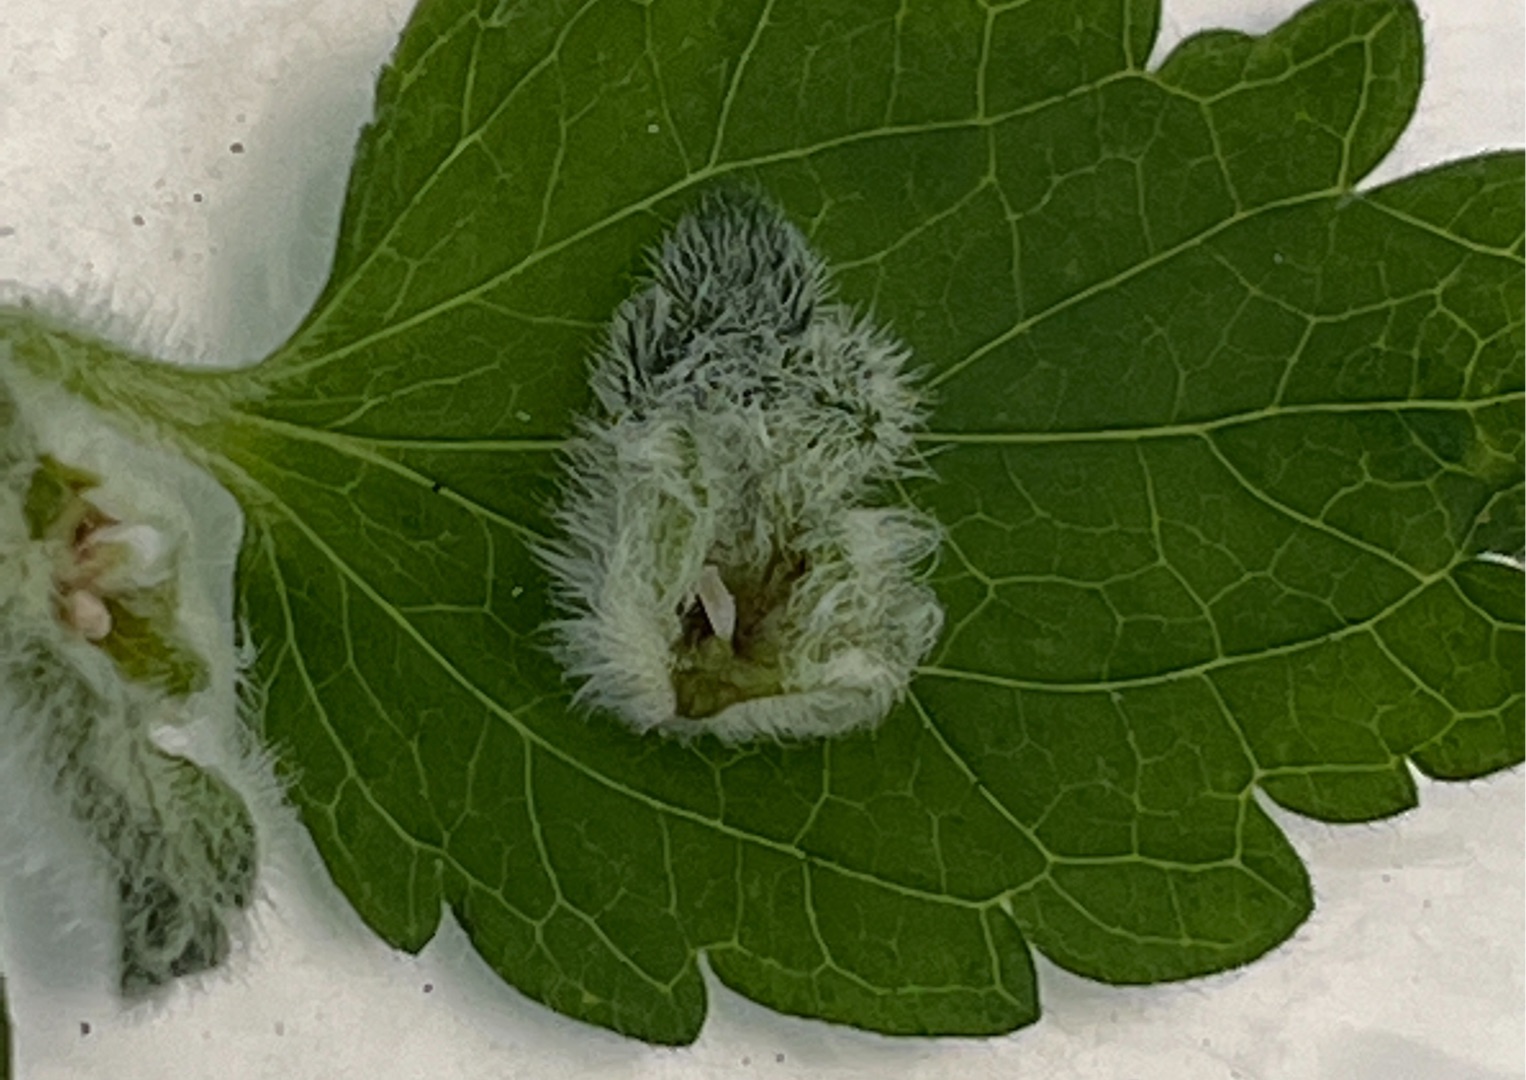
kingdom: Animalia
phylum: Arthropoda
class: Insecta
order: Diptera
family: Cecidomyiidae
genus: Macrolabis
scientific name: Macrolabis incolens
